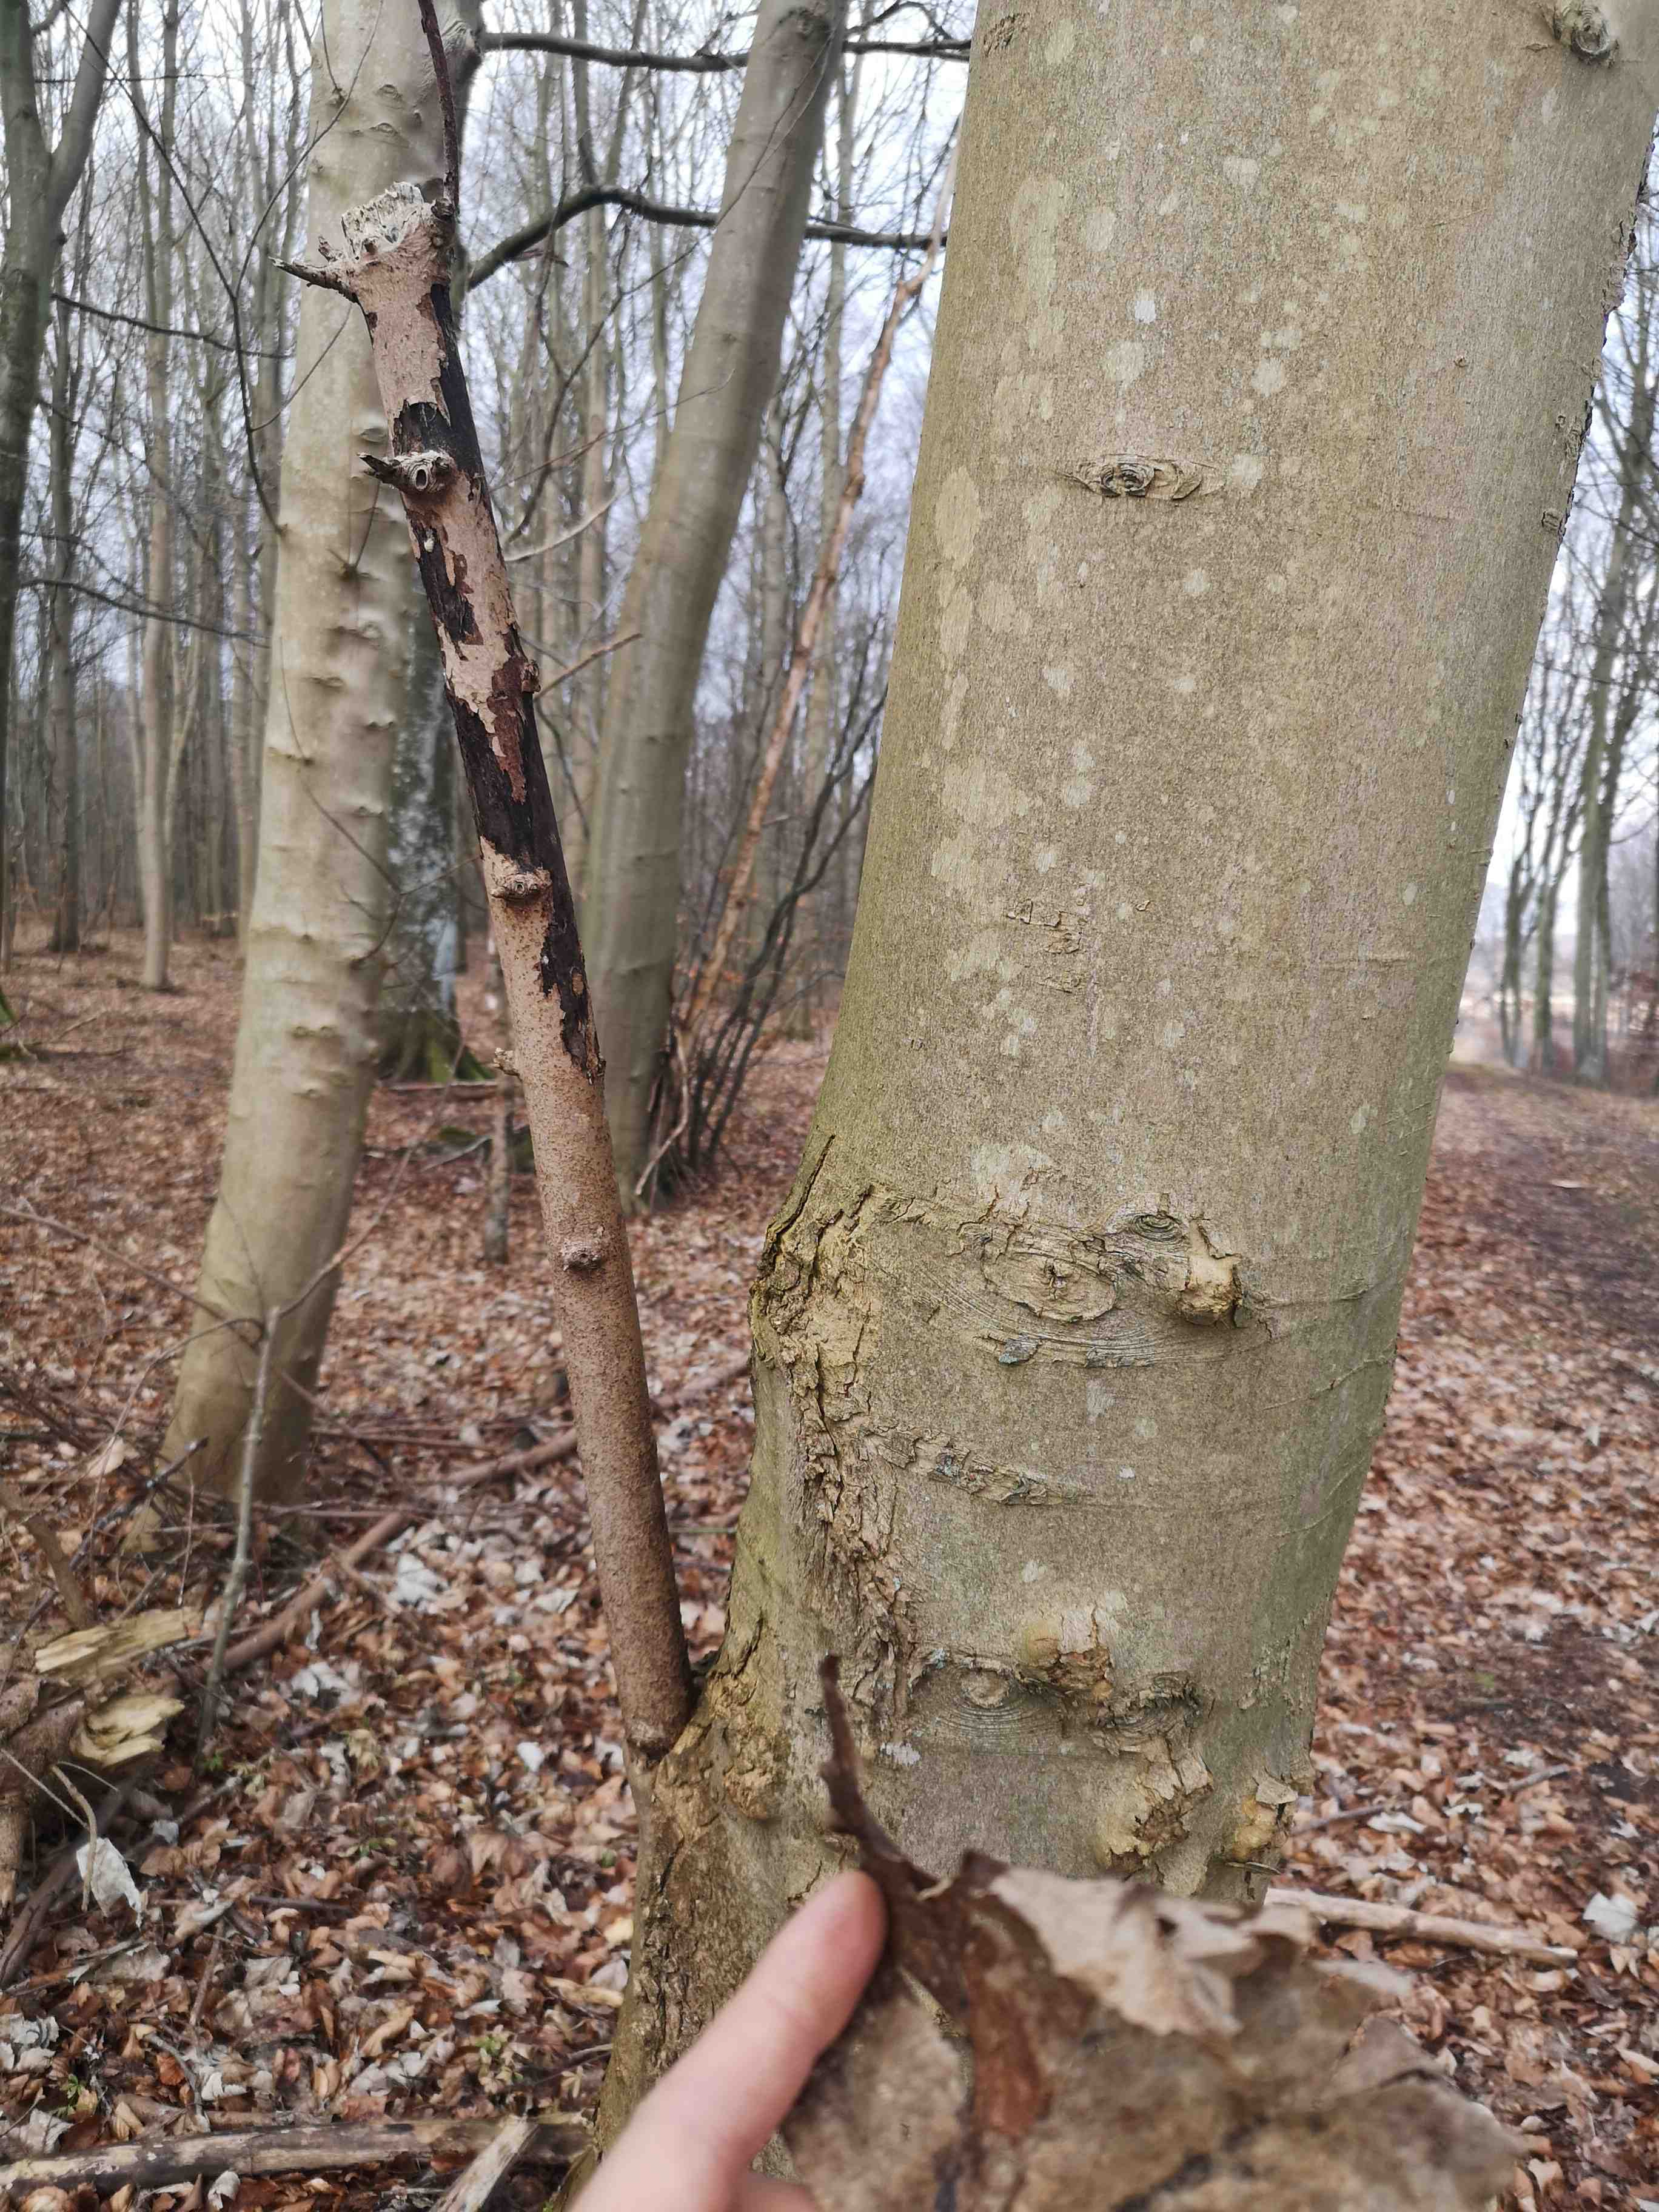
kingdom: Fungi
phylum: Ascomycota
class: Sordariomycetes
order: Xylariales
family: Diatrypaceae
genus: Eutypa
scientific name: Eutypa maura
